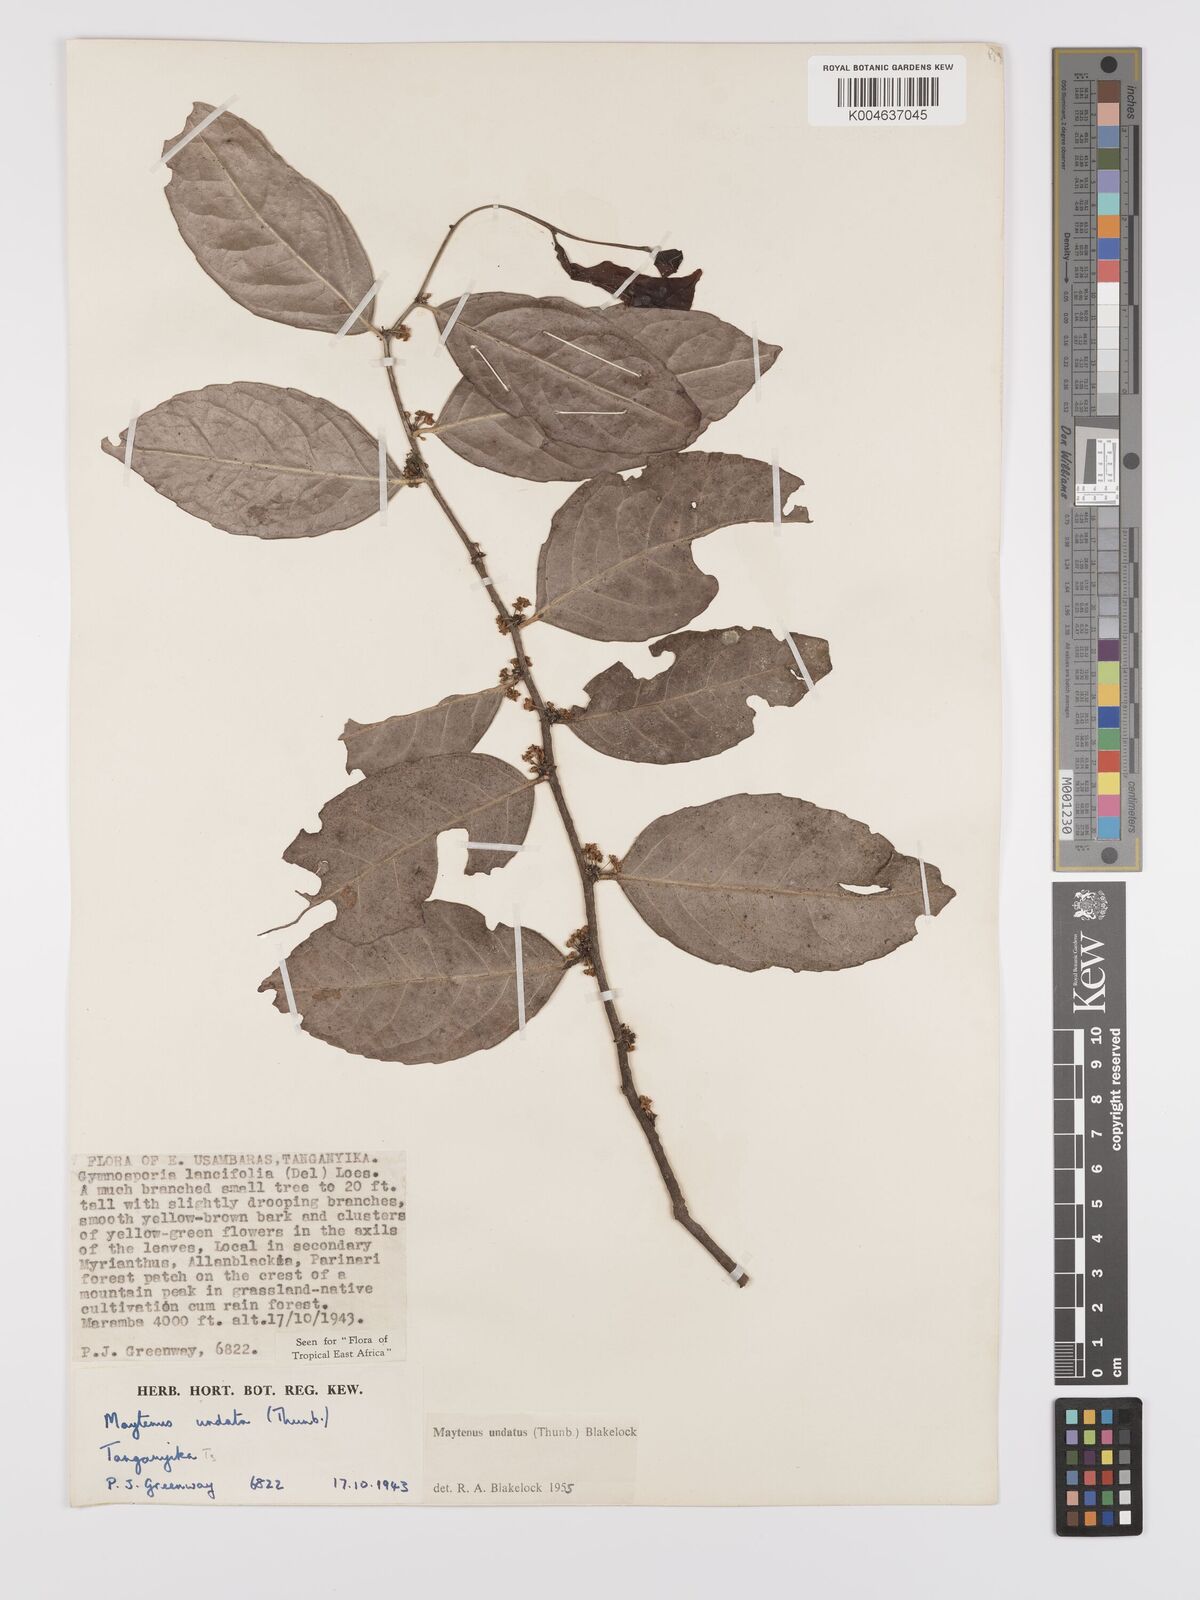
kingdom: Plantae
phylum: Tracheophyta
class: Magnoliopsida
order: Celastrales
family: Celastraceae
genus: Gymnosporia
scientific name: Gymnosporia undata
